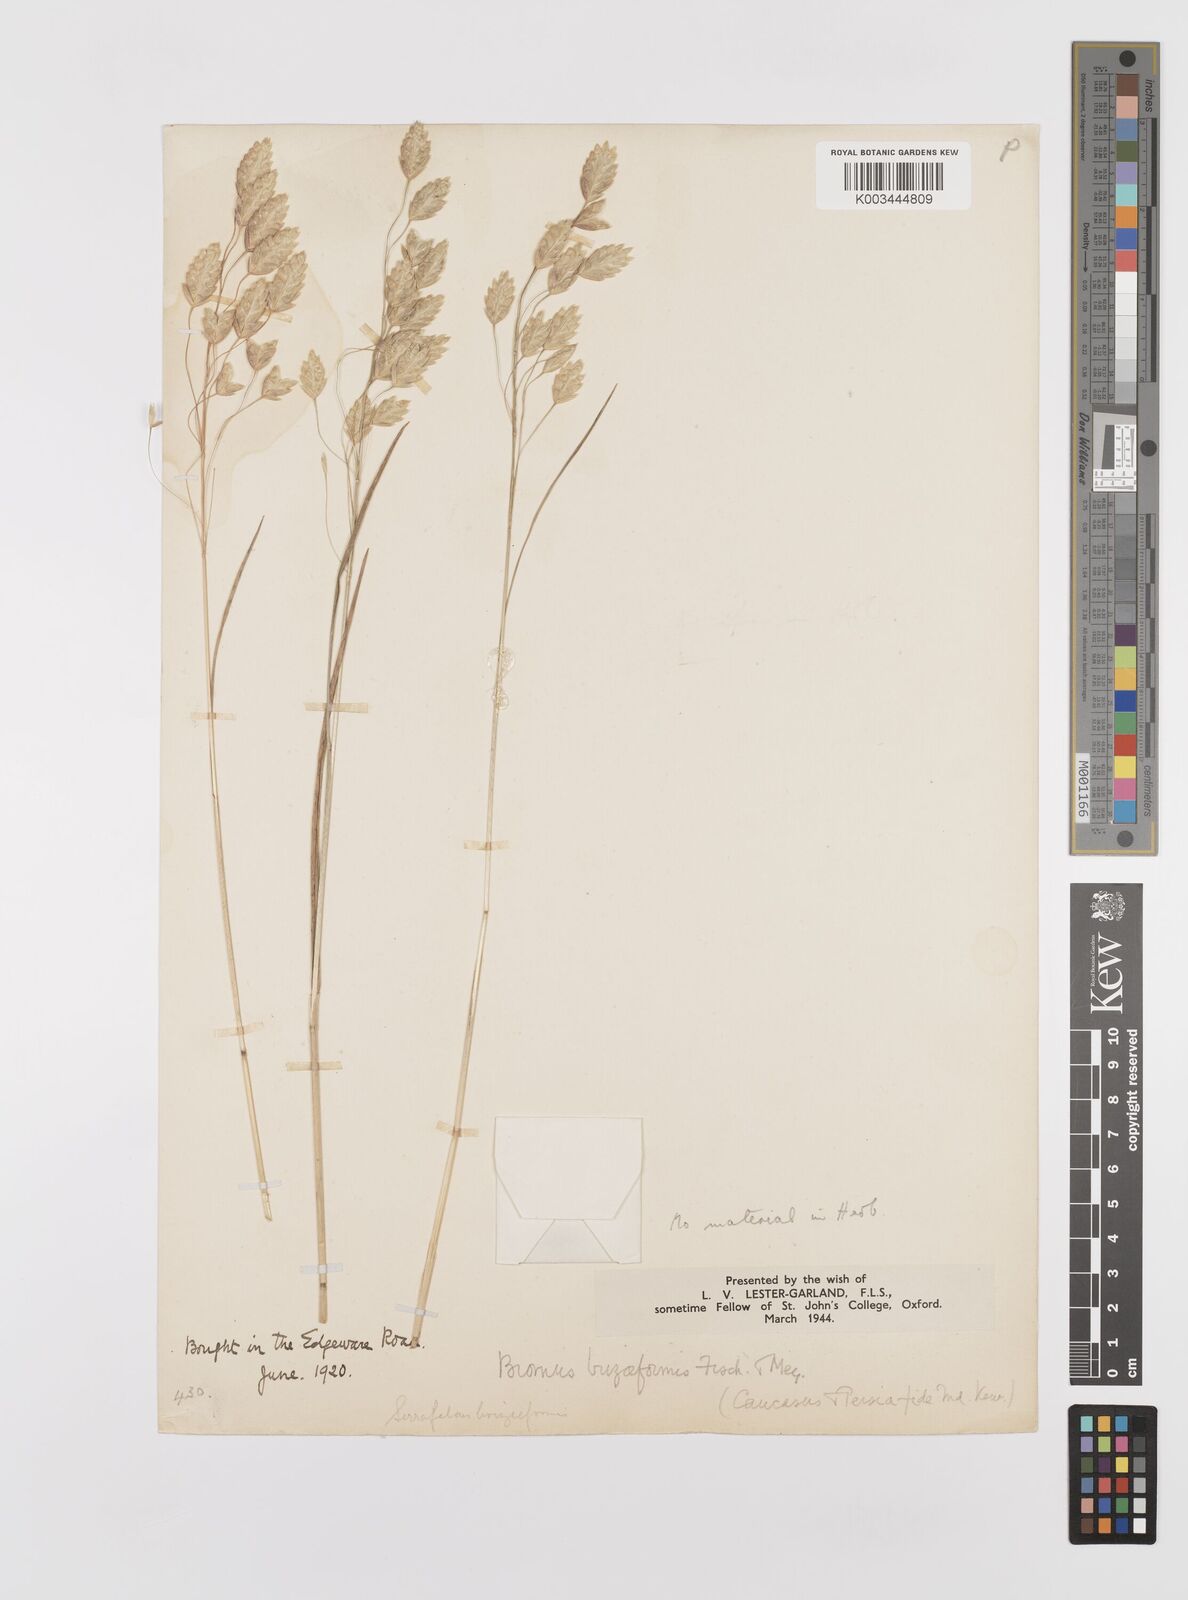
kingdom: Plantae
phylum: Tracheophyta
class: Liliopsida
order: Poales
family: Poaceae
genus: Bromus
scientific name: Bromus briziformis
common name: Rattlesnake brome
